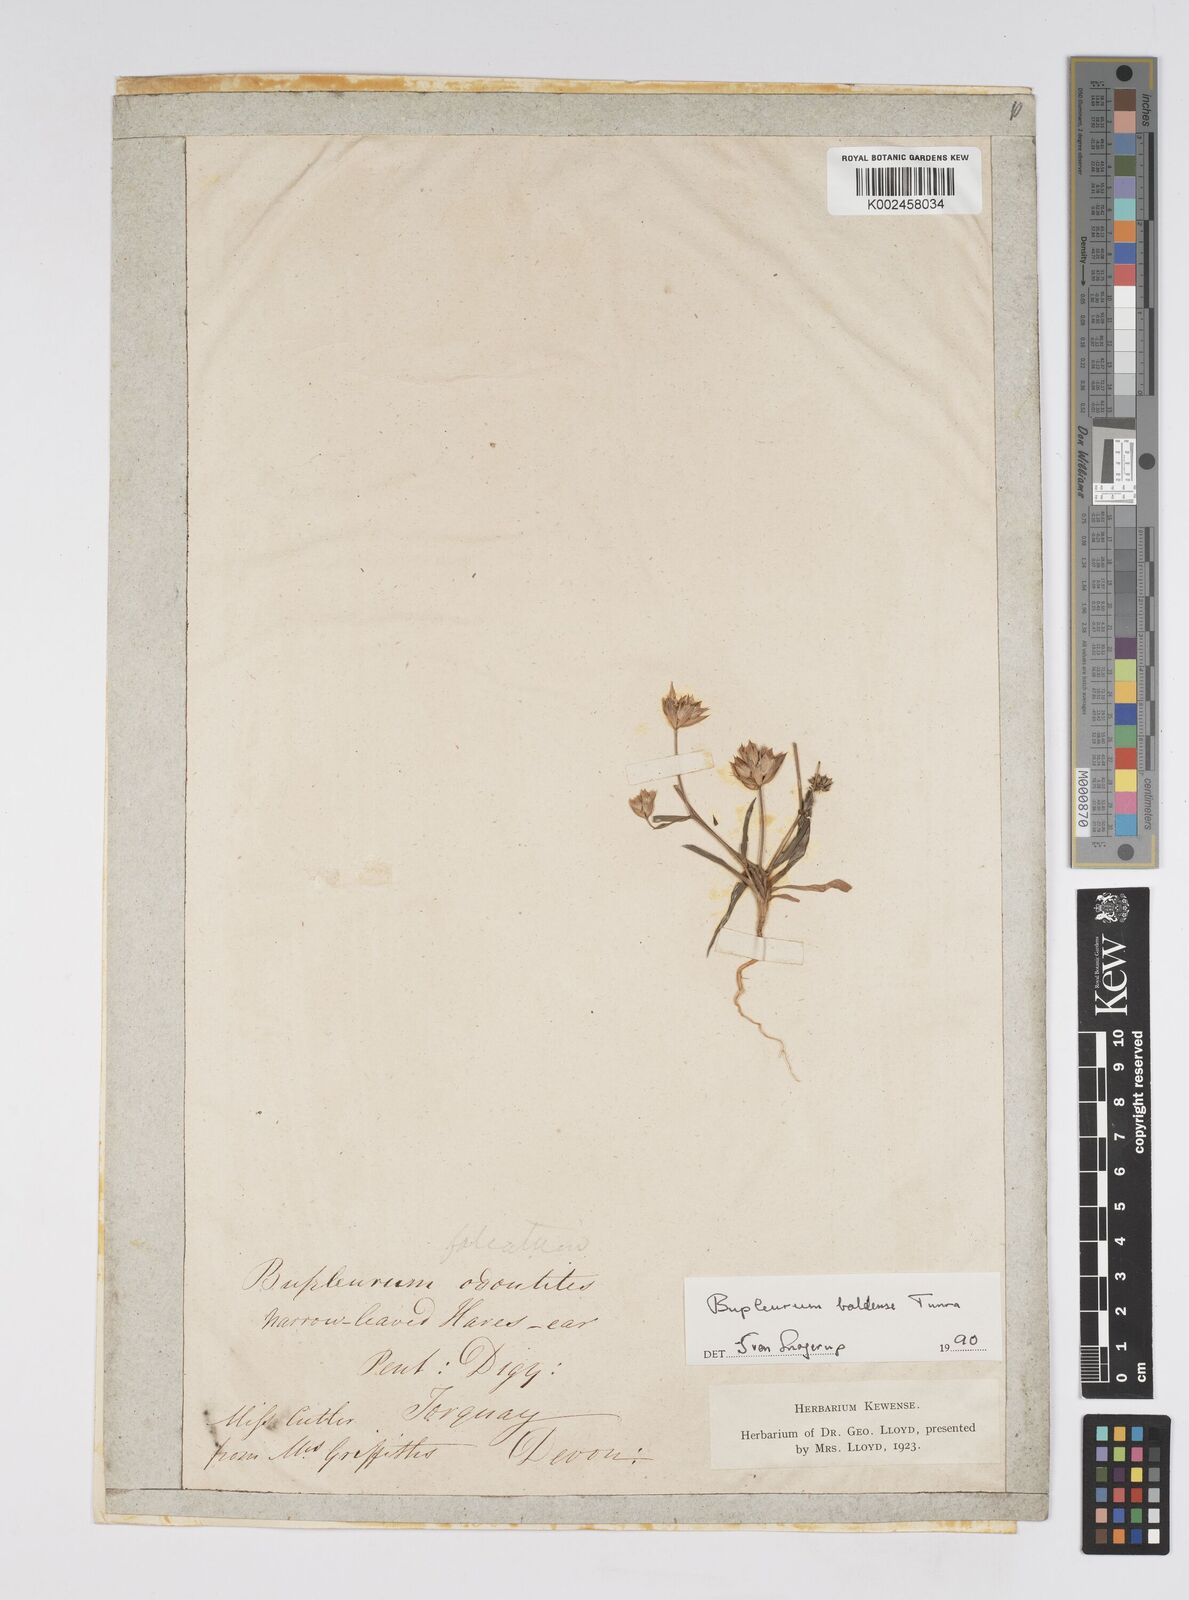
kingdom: Plantae
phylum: Tracheophyta
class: Magnoliopsida
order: Apiales
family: Apiaceae
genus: Bupleurum
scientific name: Bupleurum baldense
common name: Small hare's-ear
